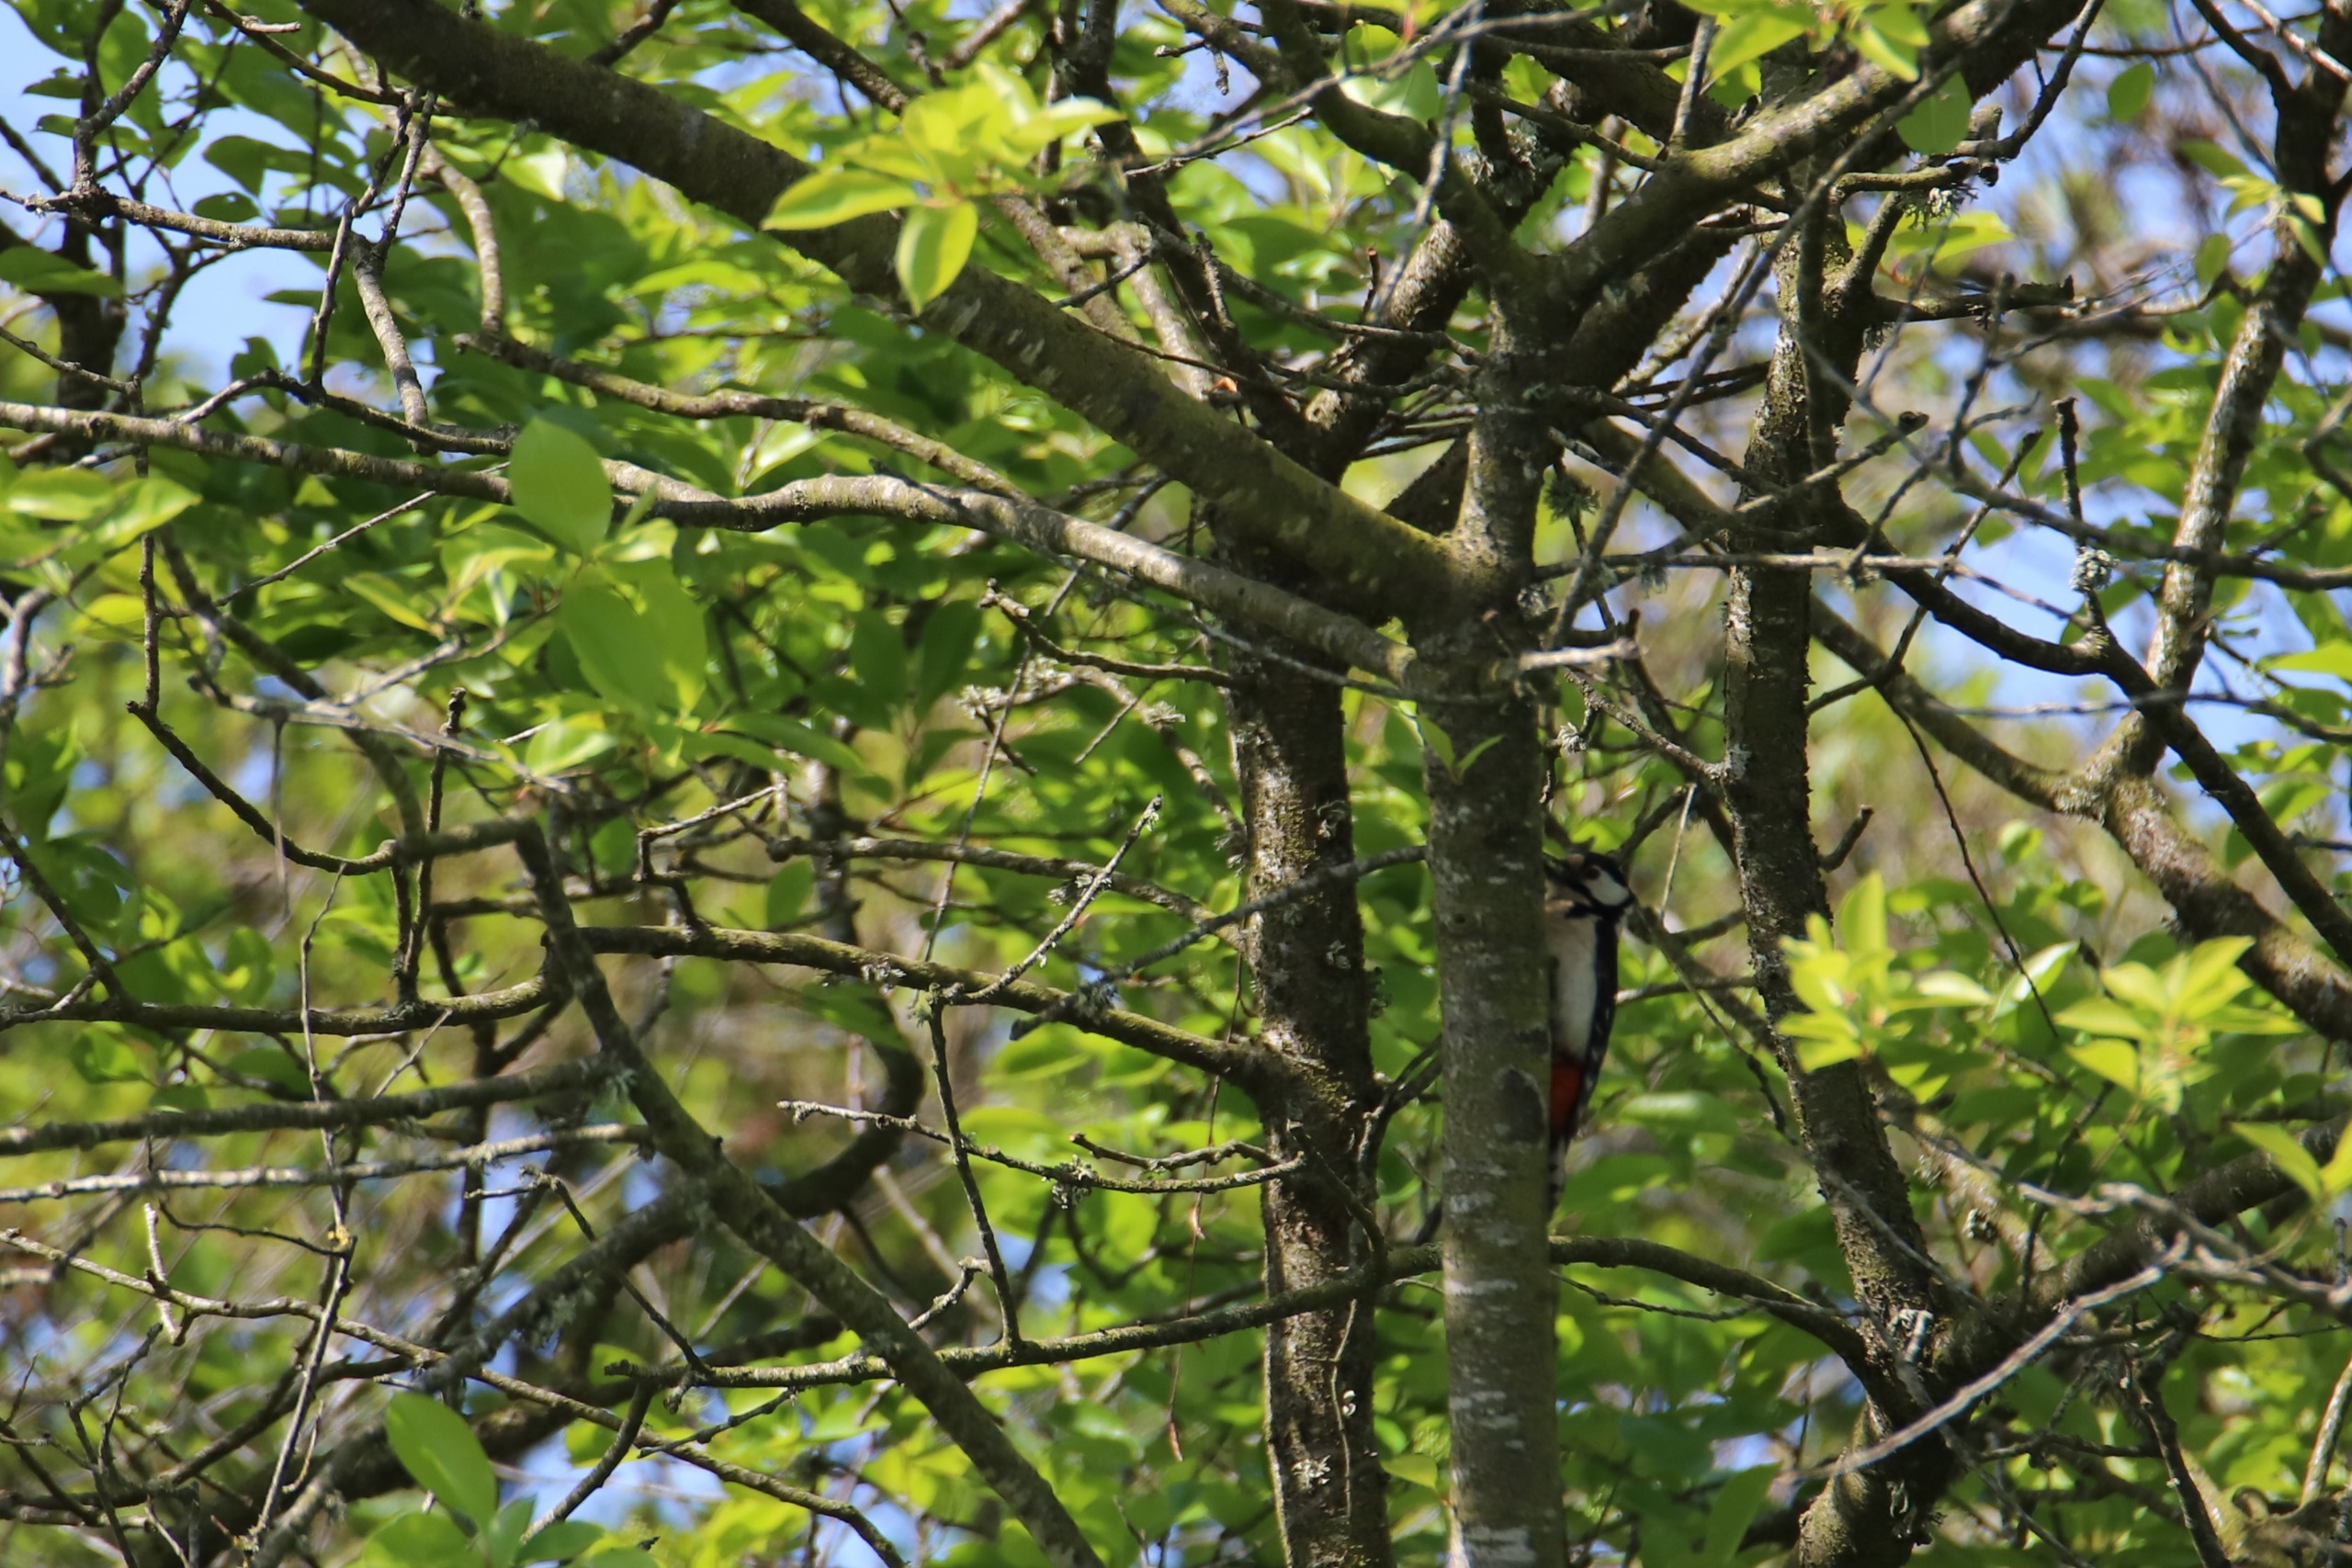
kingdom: Animalia
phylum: Chordata
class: Aves
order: Piciformes
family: Picidae
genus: Dendrocopos
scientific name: Dendrocopos major
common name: Stor flagspætte
